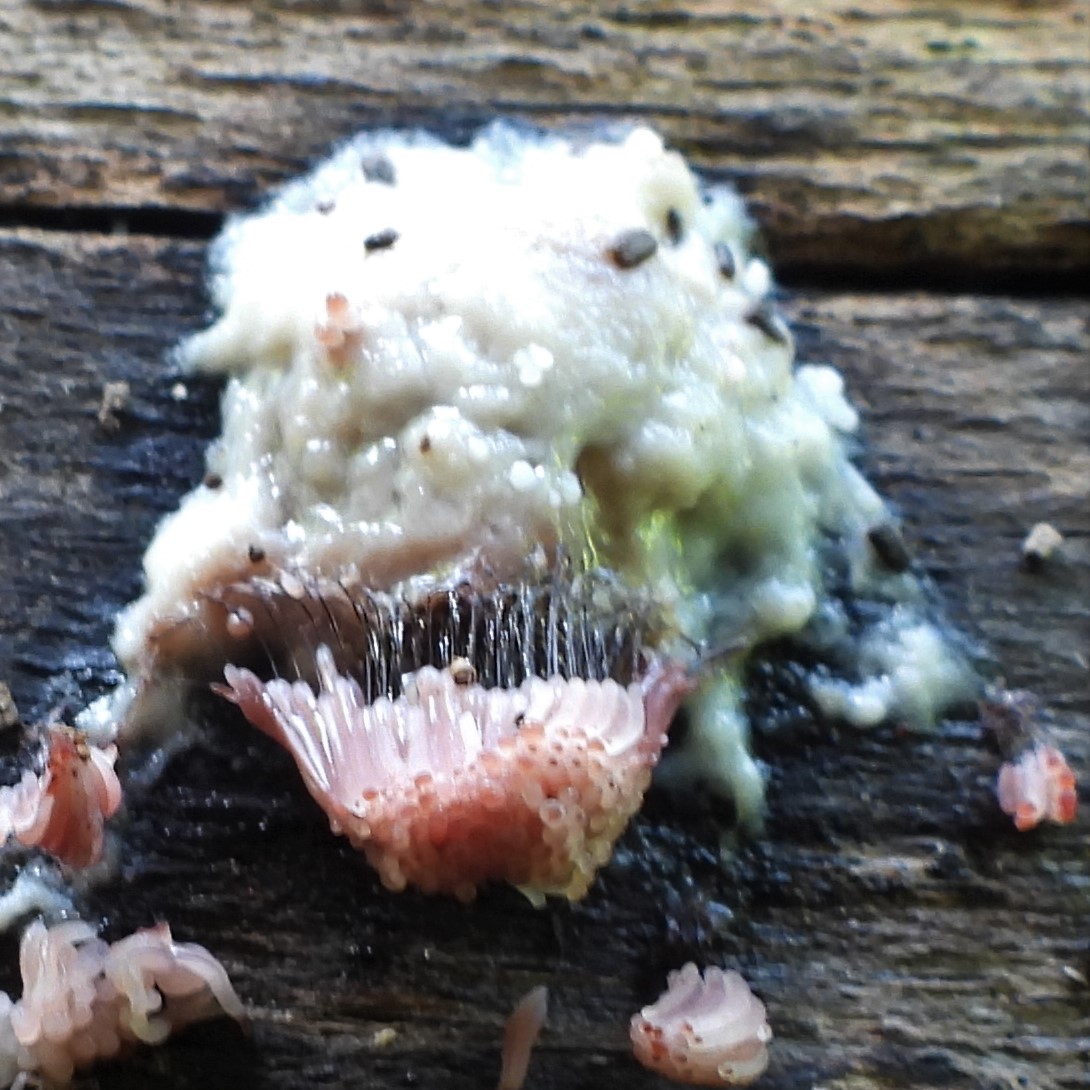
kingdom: Protozoa
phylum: Mycetozoa
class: Myxomycetes
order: Stemonitidales
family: Stemonitidaceae
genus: Stemonitis
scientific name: Stemonitis
